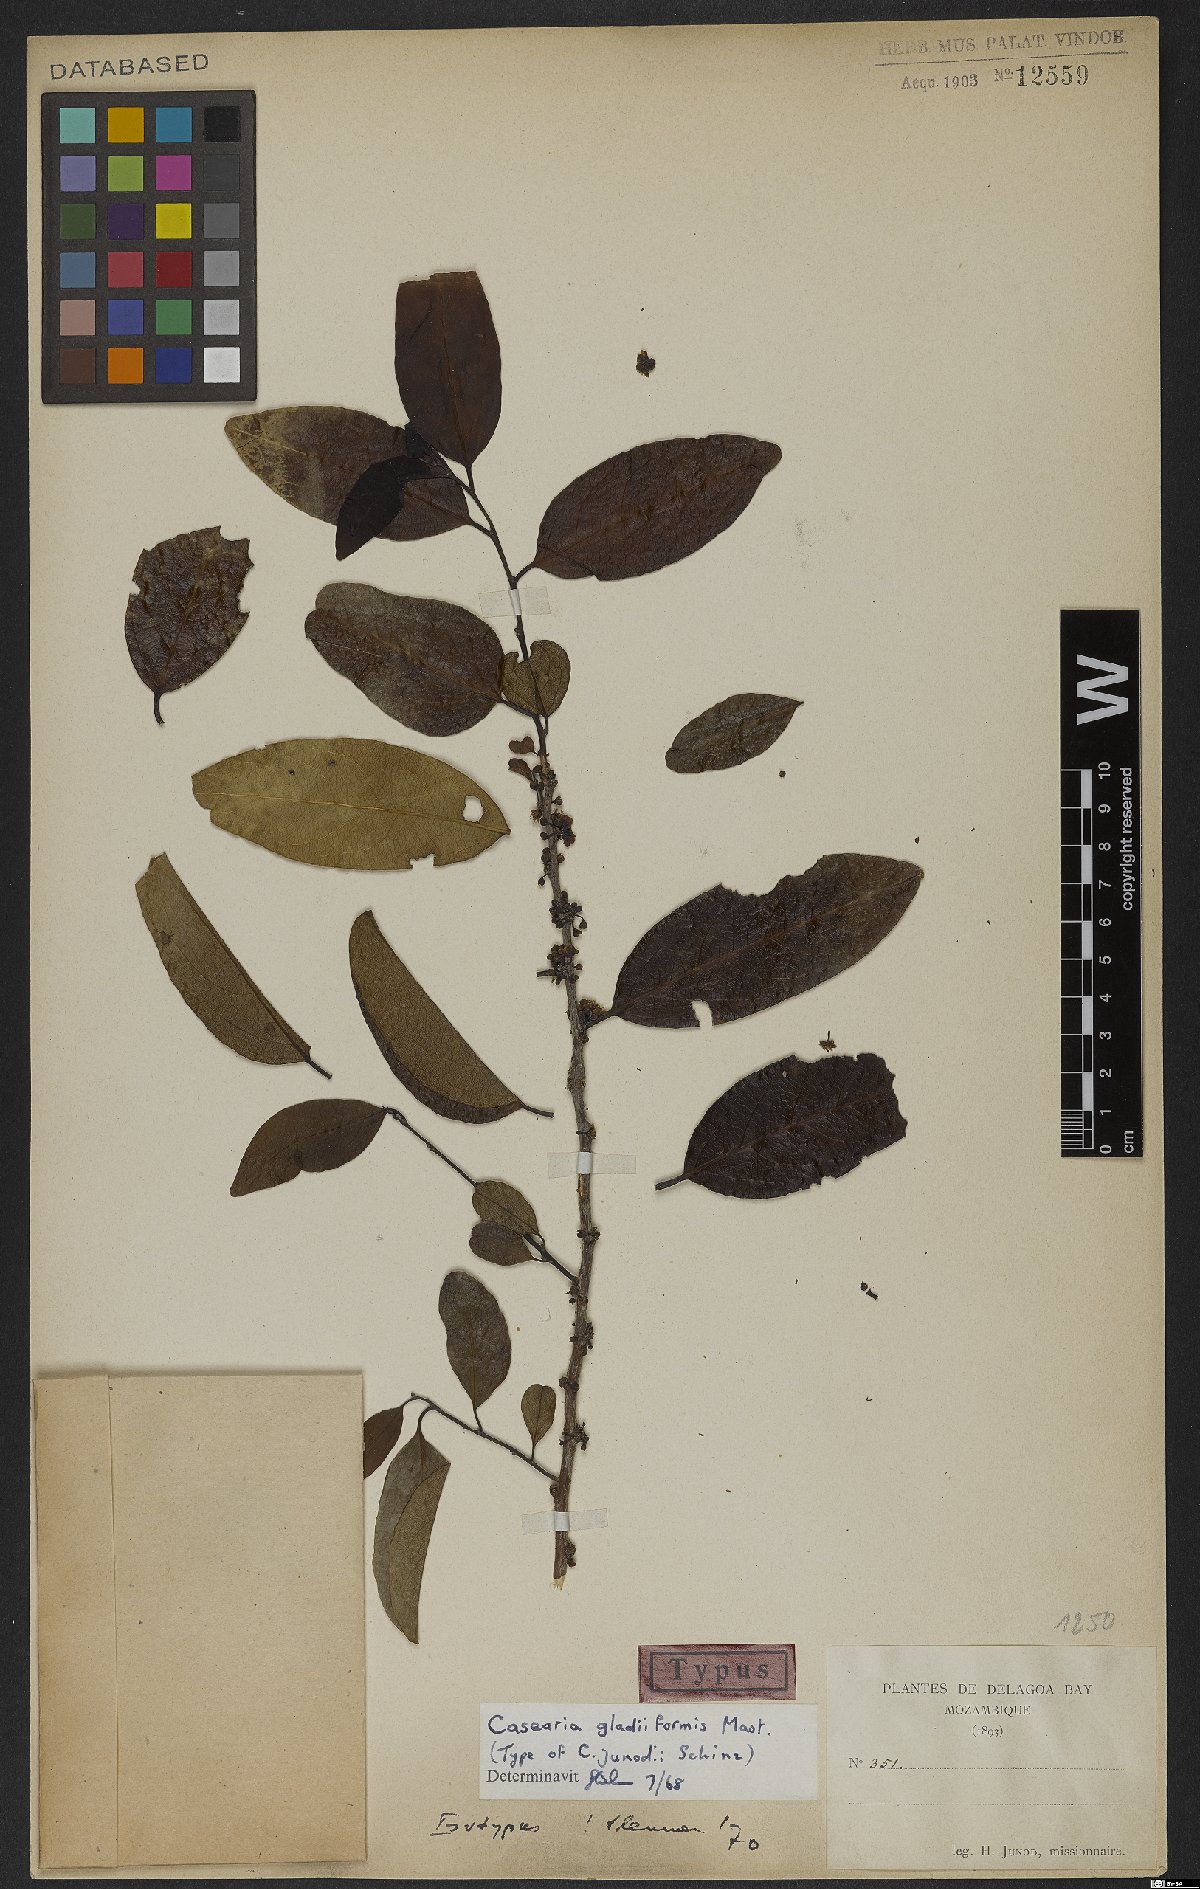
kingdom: Plantae
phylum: Tracheophyta
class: Magnoliopsida
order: Malpighiales
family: Salicaceae
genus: Casearia
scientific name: Casearia gladiiformis
